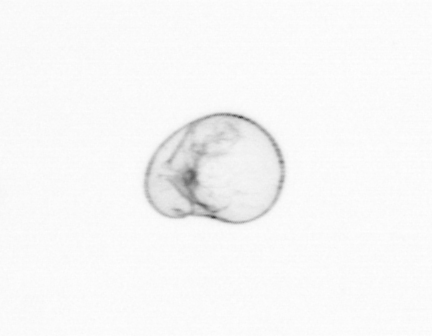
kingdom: Chromista
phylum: Myzozoa
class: Dinophyceae
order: Noctilucales
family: Noctilucaceae
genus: Noctiluca
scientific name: Noctiluca scintillans
